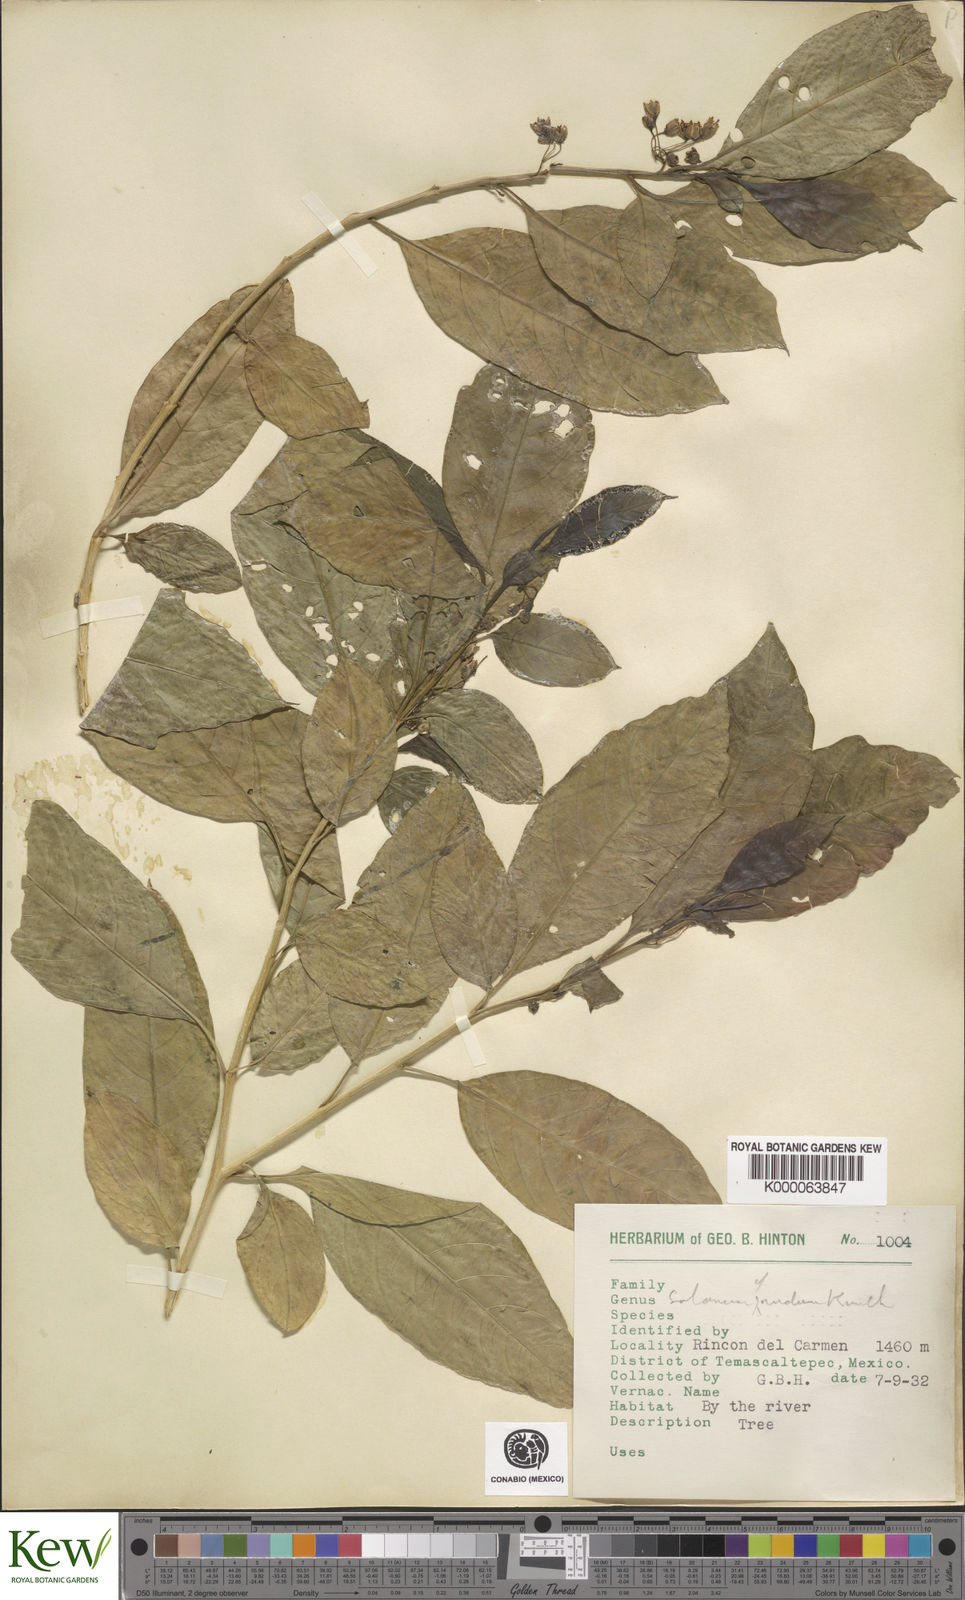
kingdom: Plantae
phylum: Tracheophyta
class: Magnoliopsida
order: Solanales
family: Solanaceae
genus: Solanum
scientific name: Solanum nudum
